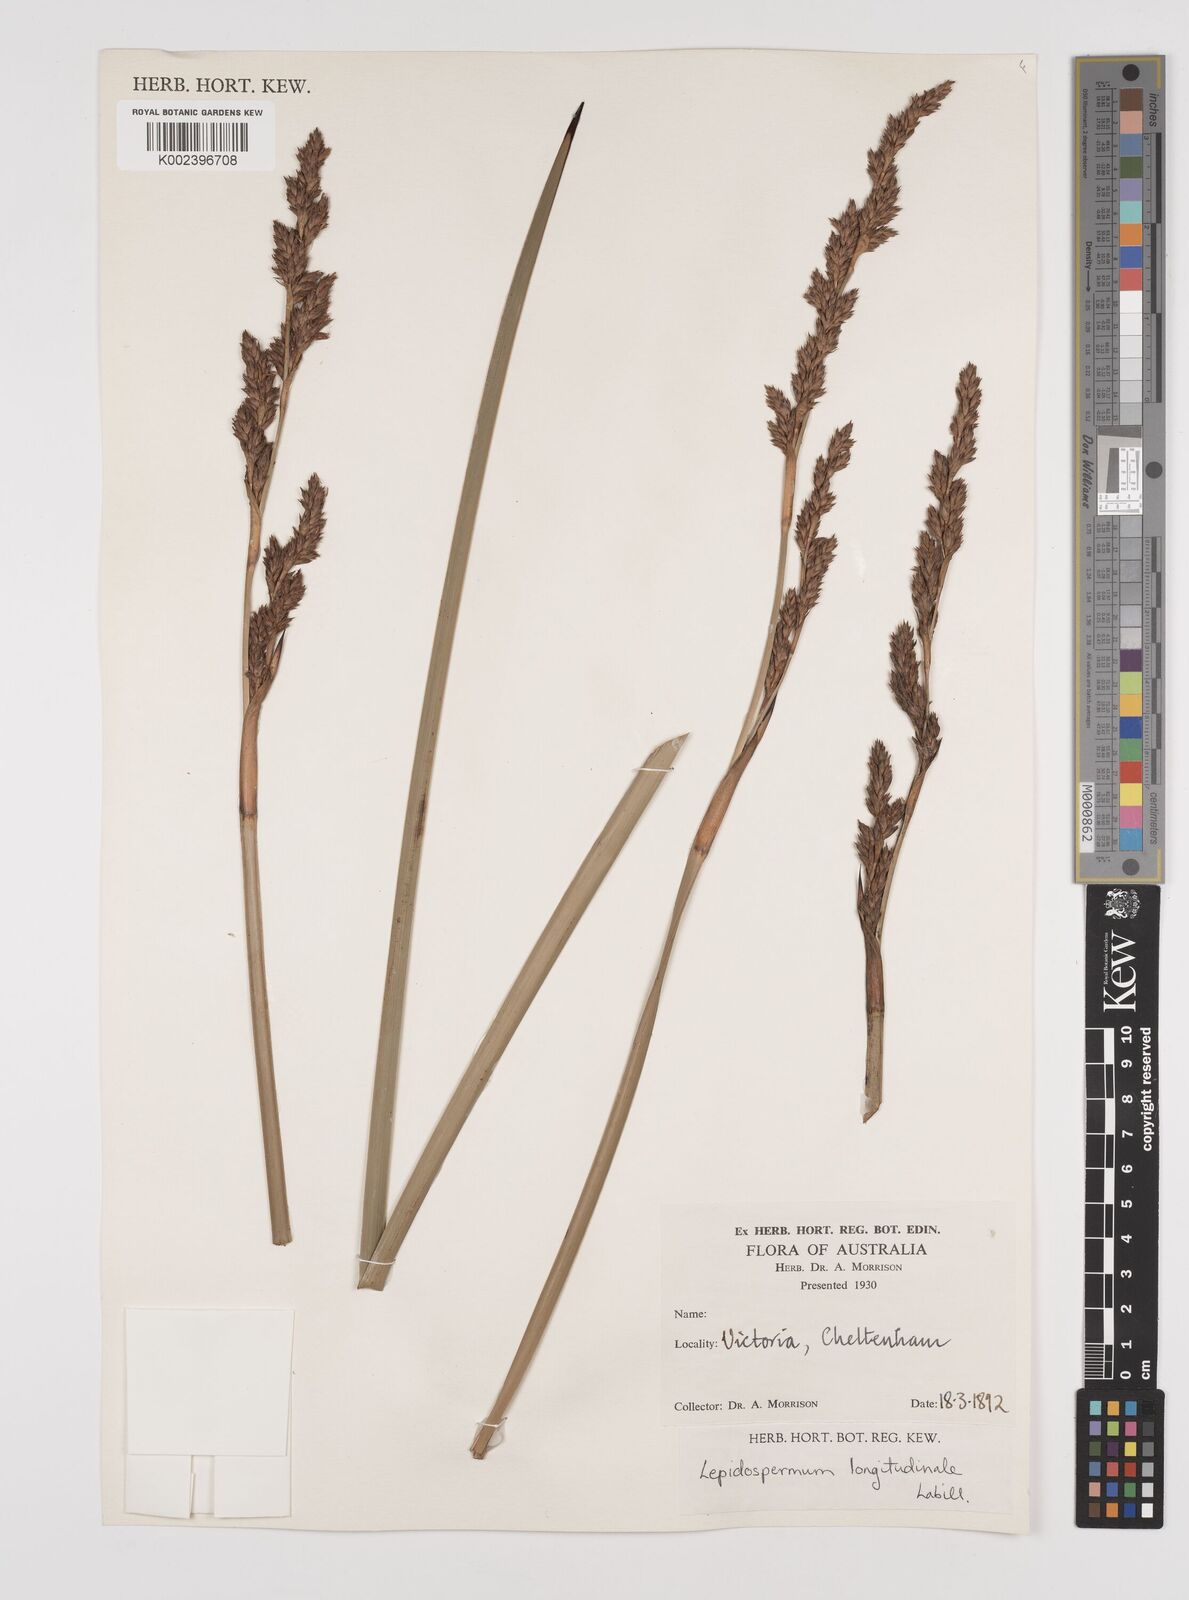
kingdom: Plantae
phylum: Tracheophyta
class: Liliopsida
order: Poales
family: Cyperaceae
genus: Lepidosperma
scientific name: Lepidosperma longitudinale
